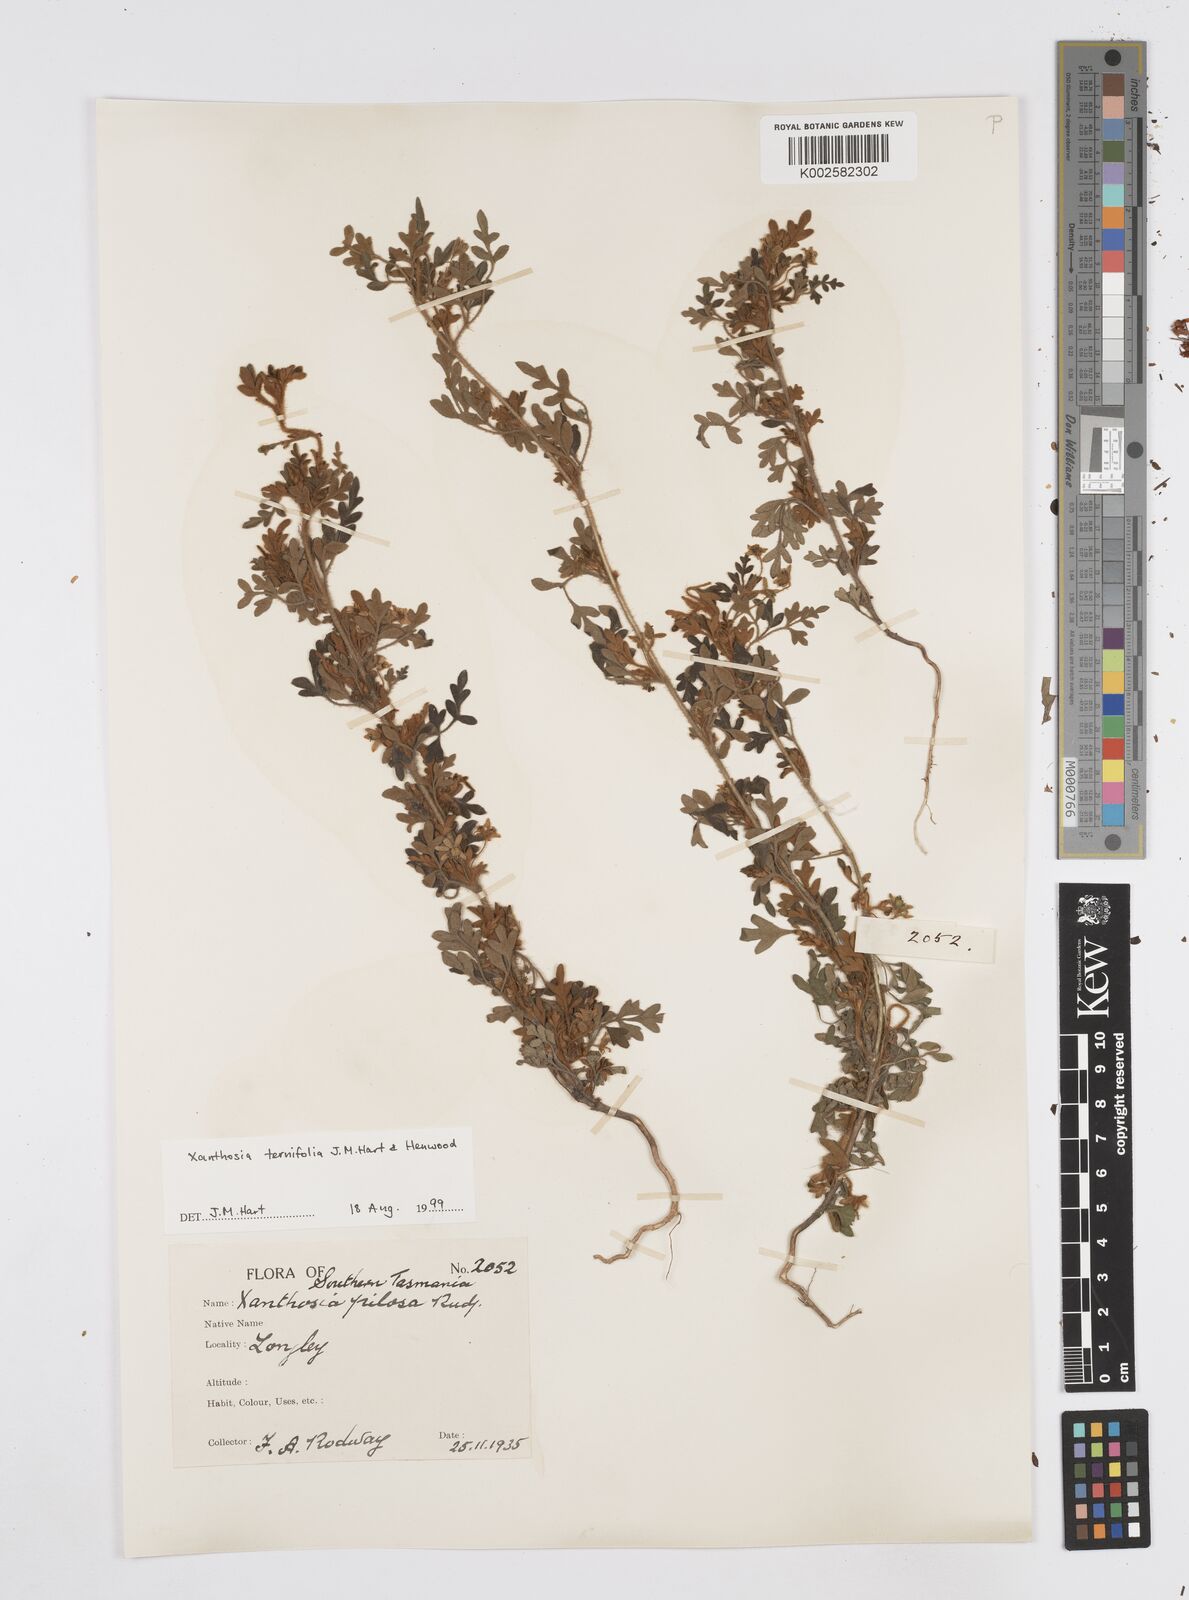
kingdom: Plantae
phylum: Tracheophyta
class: Magnoliopsida
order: Apiales
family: Apiaceae
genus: Xanthosia
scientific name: Xanthosia ternifolia
